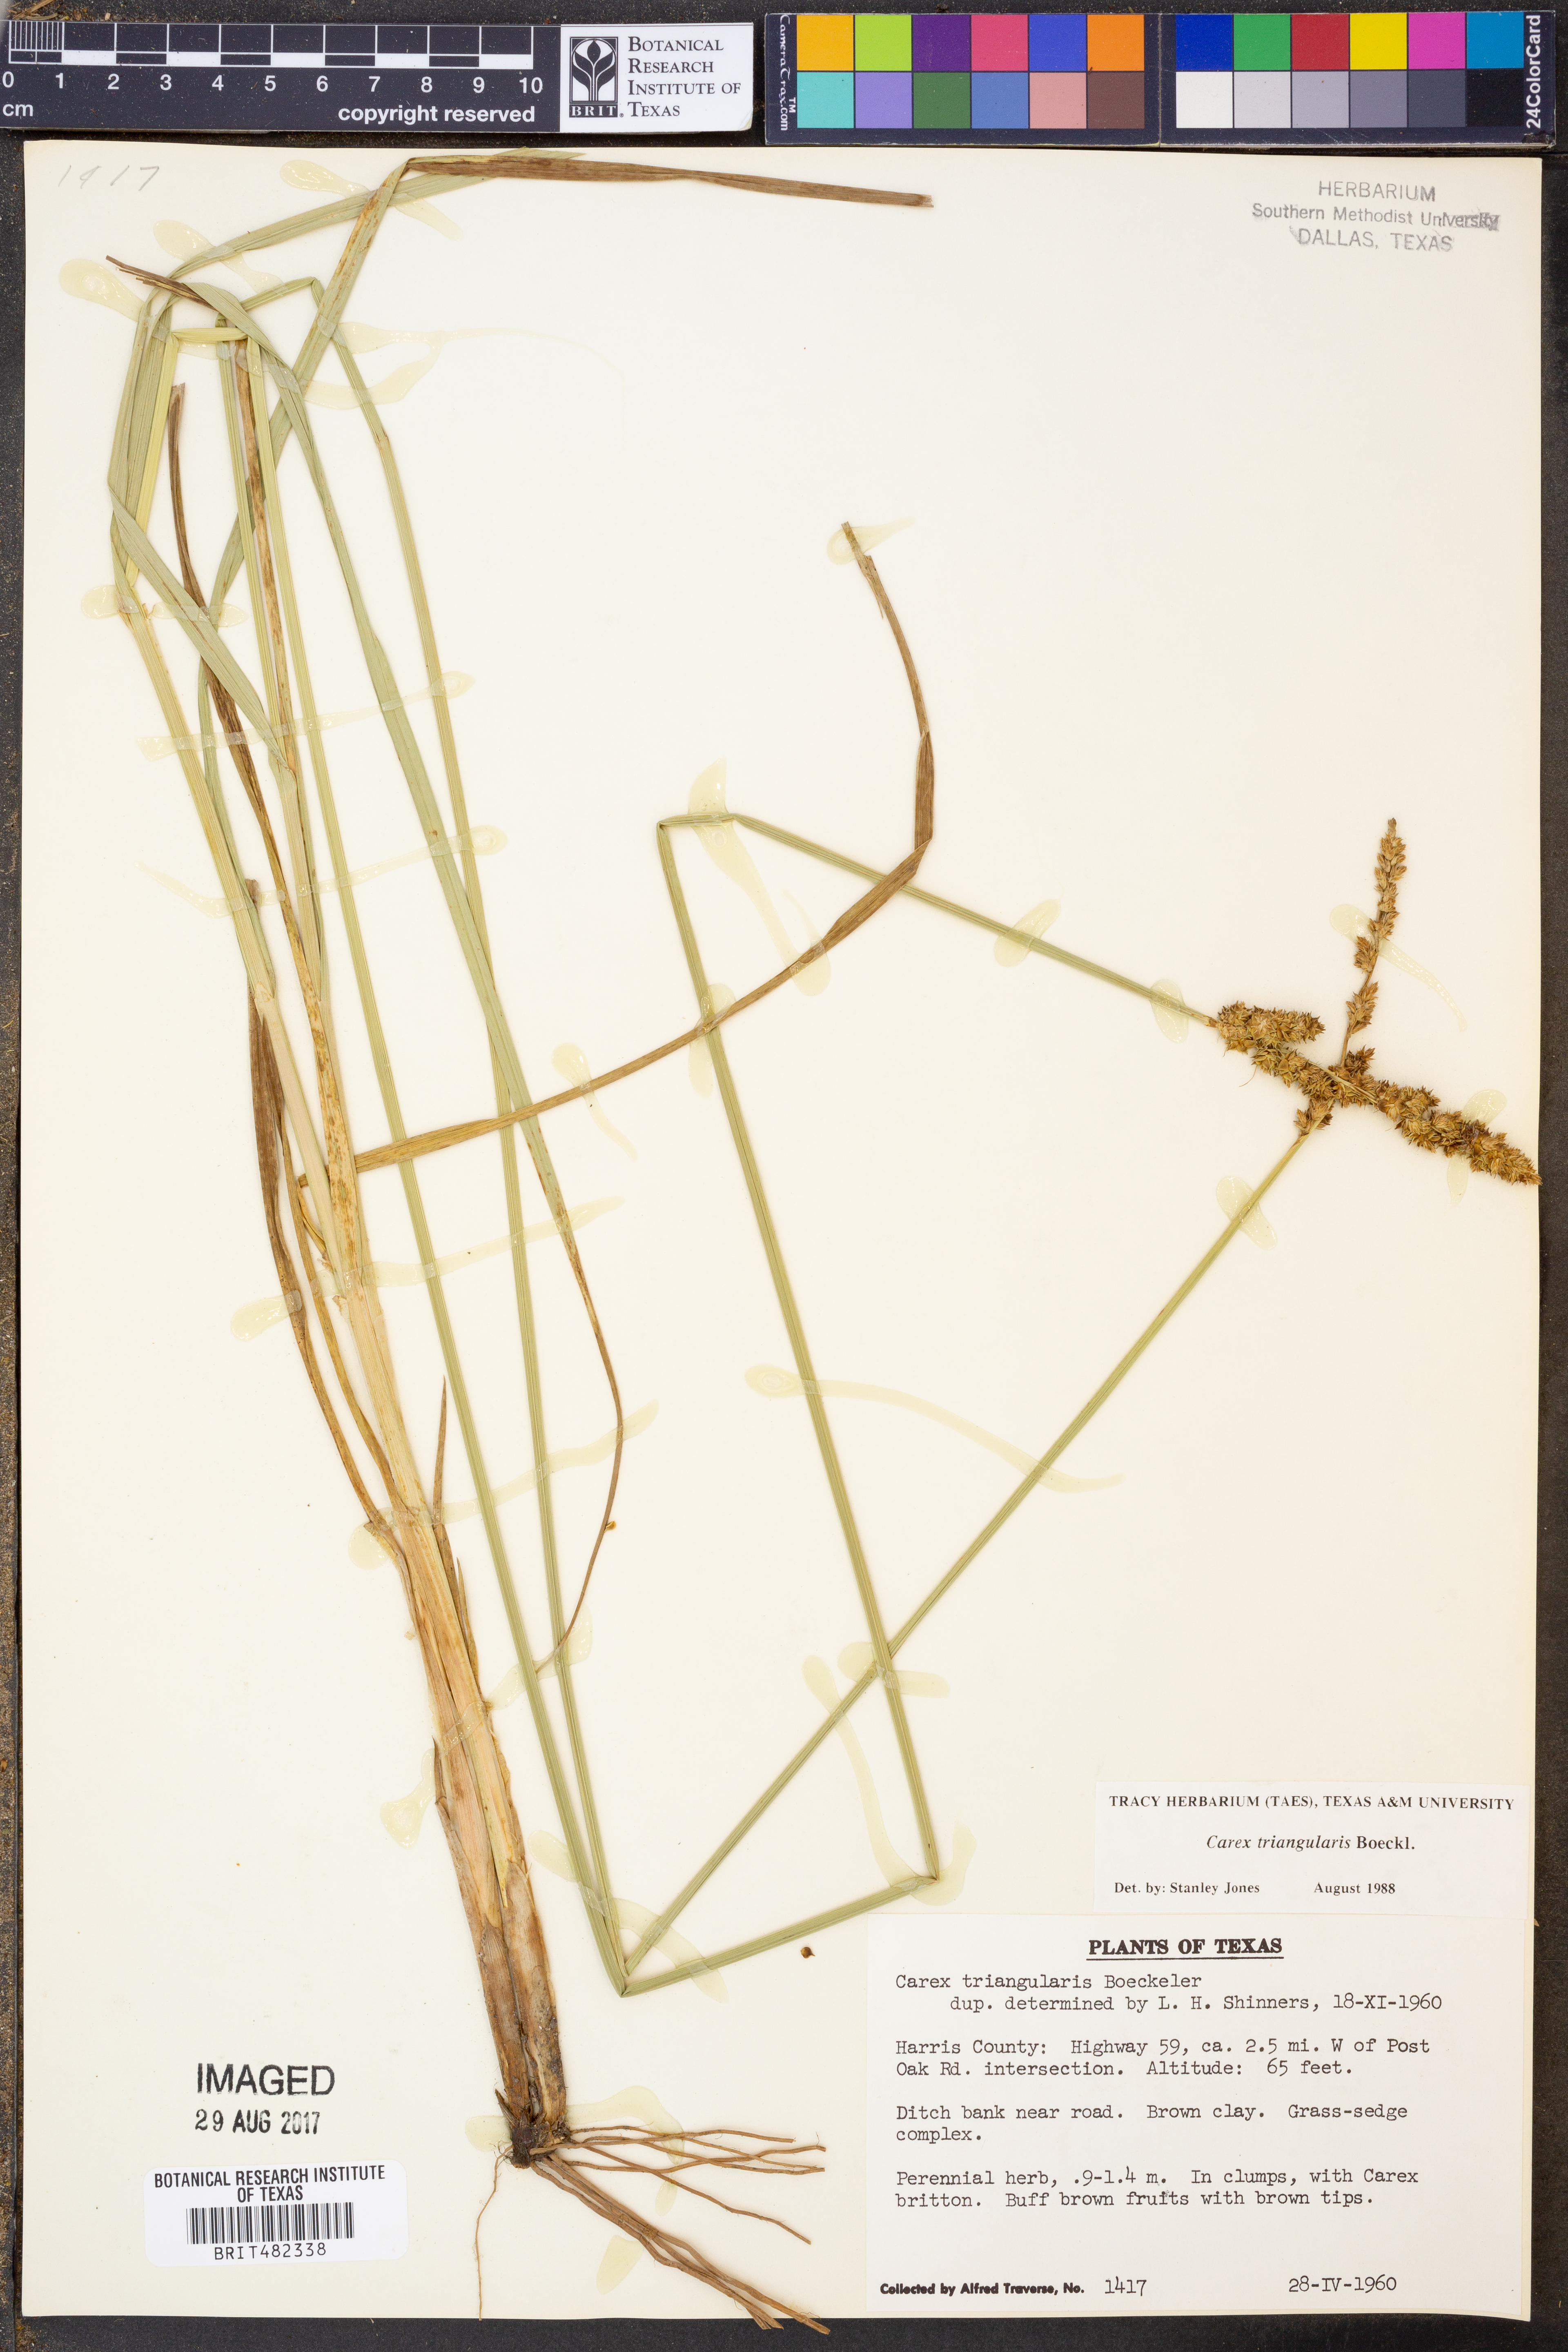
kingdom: Plantae
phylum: Tracheophyta
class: Liliopsida
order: Poales
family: Cyperaceae
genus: Carex
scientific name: Carex triangularis
